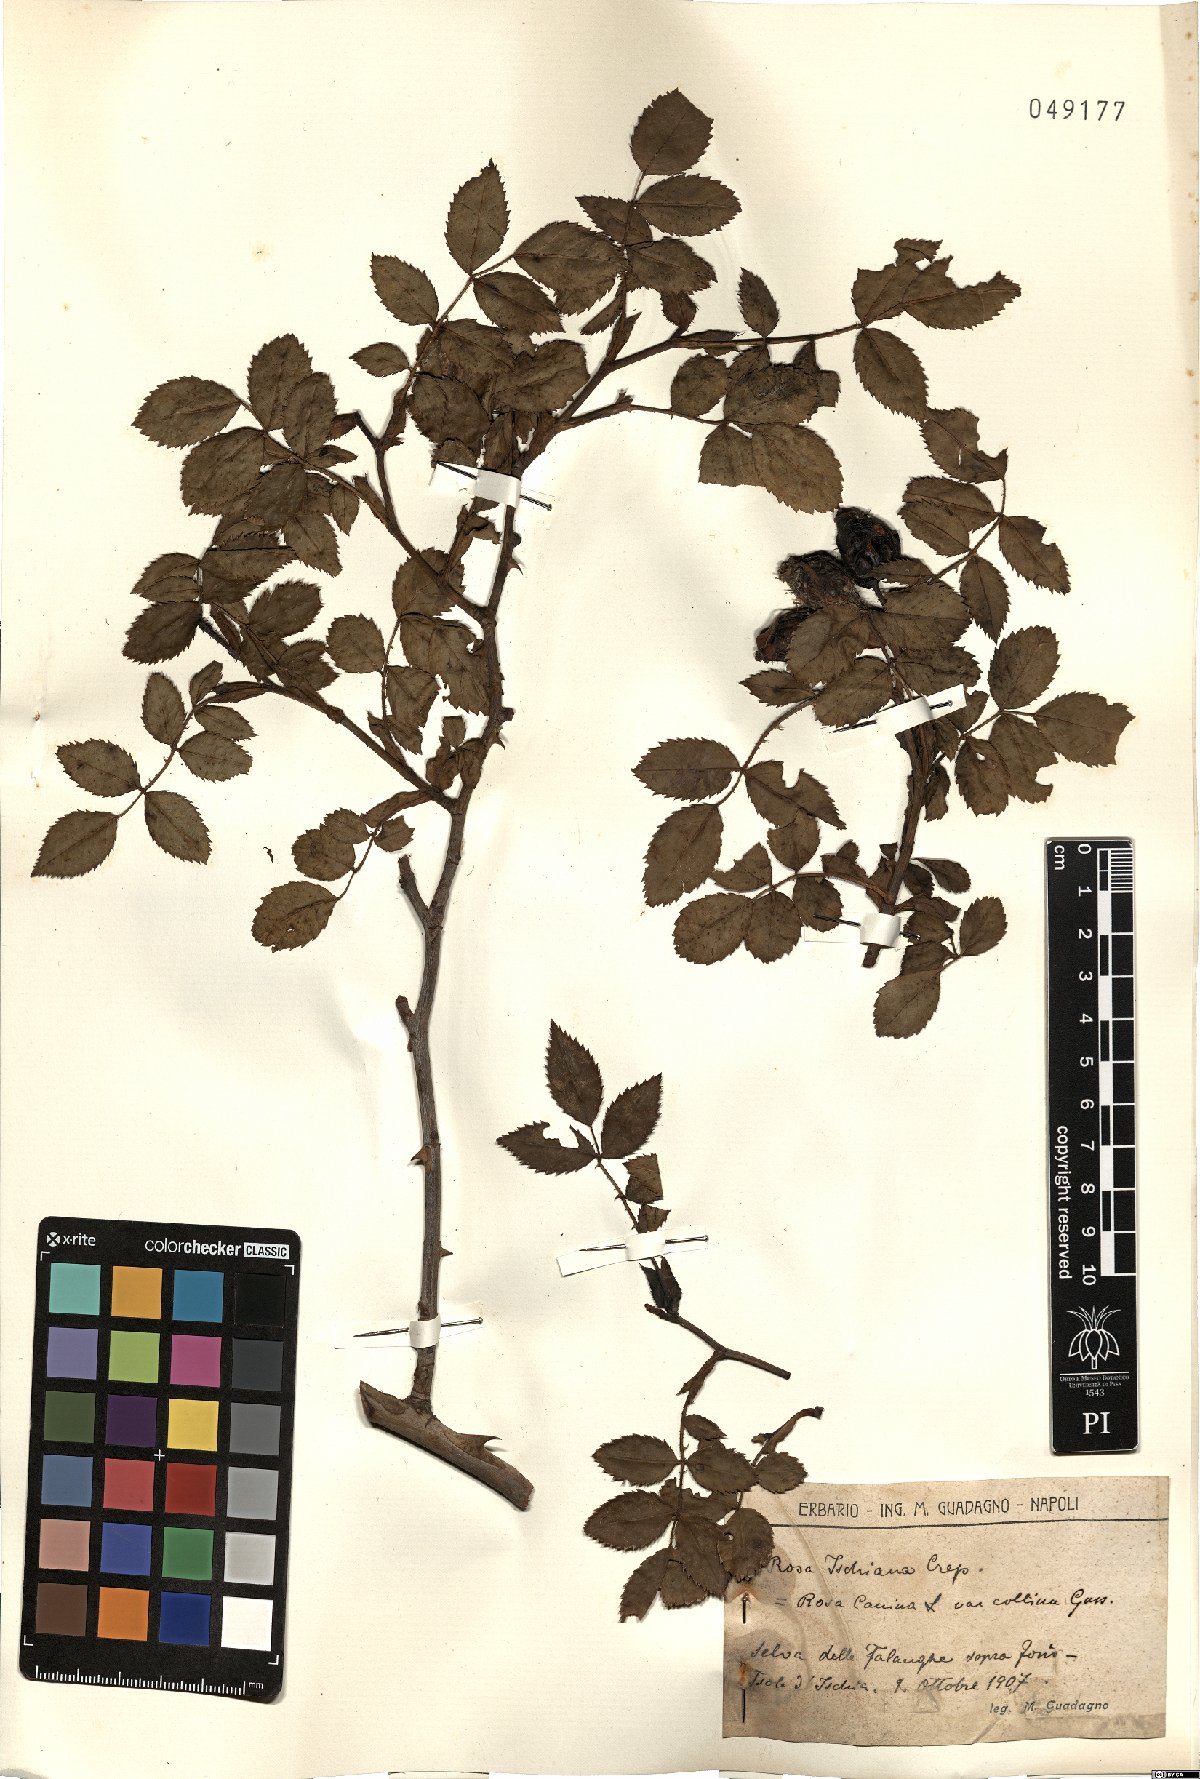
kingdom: Plantae
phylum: Tracheophyta
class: Magnoliopsida
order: Rosales
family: Rosaceae
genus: Rosa
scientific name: Rosa
